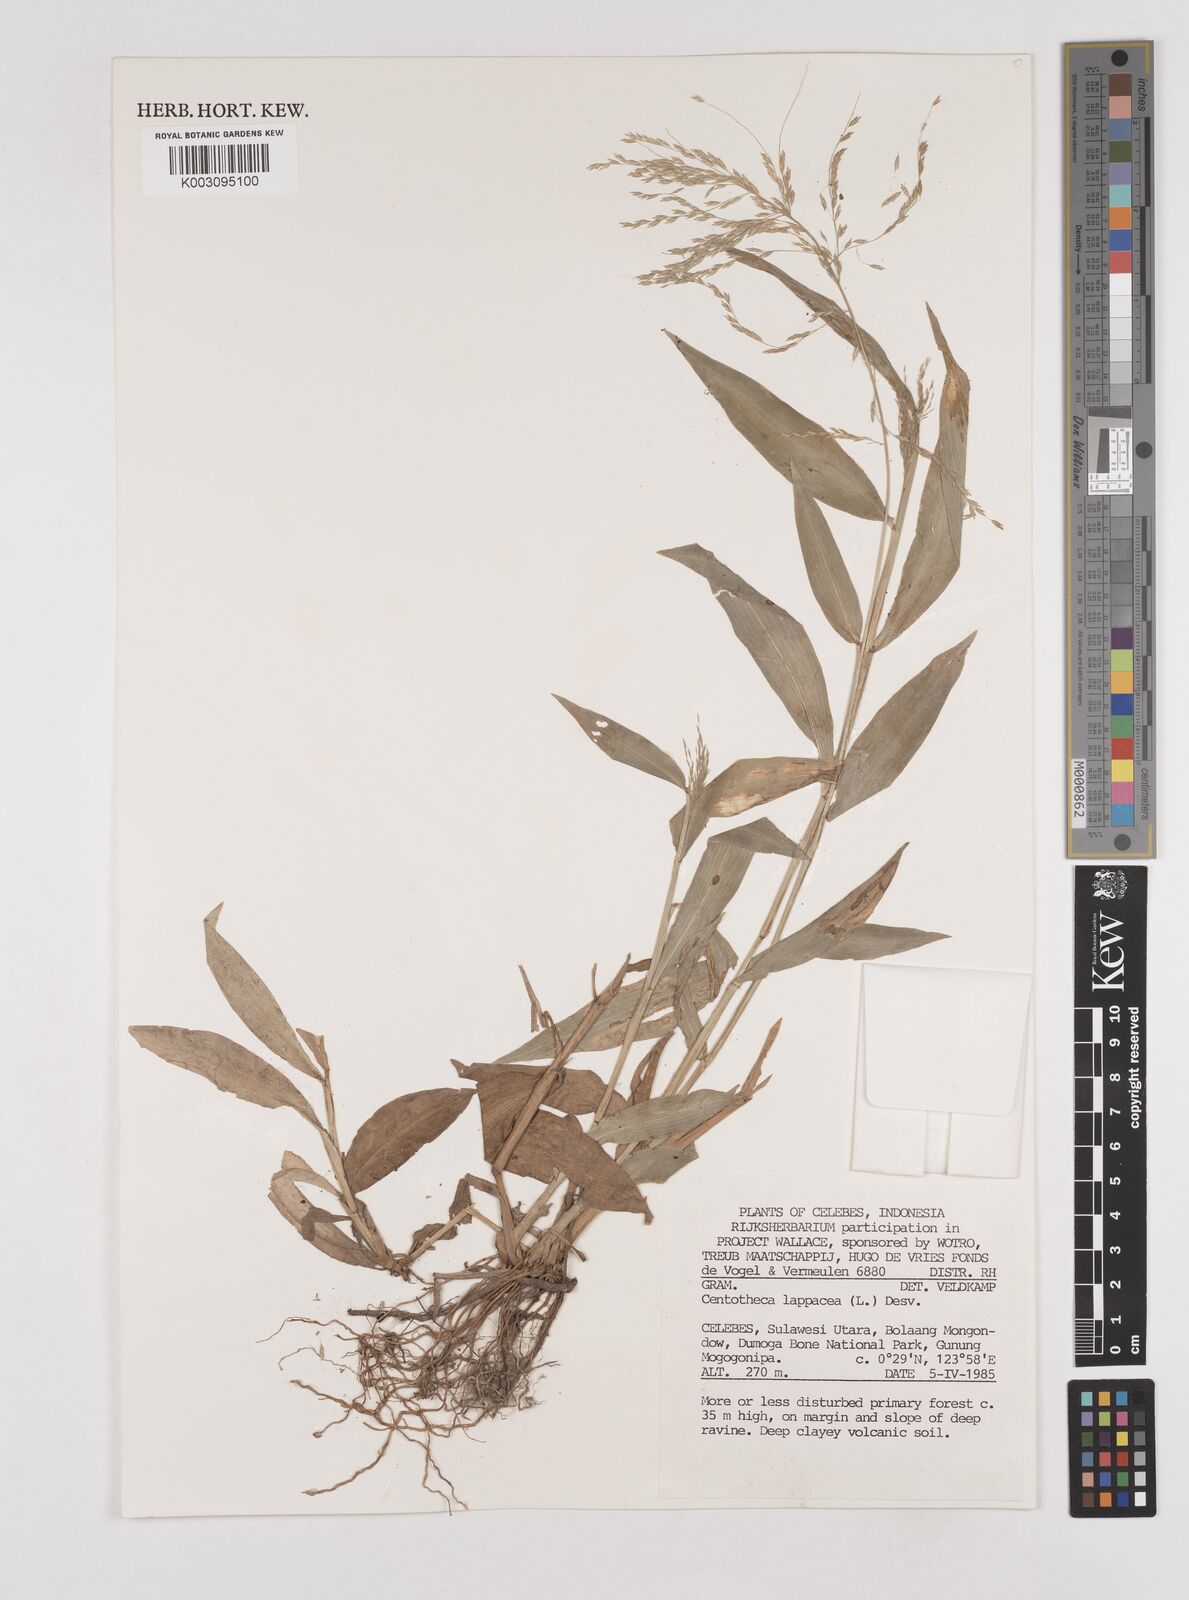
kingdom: Plantae
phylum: Tracheophyta
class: Liliopsida
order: Poales
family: Poaceae
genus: Centotheca
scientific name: Centotheca lappacea
